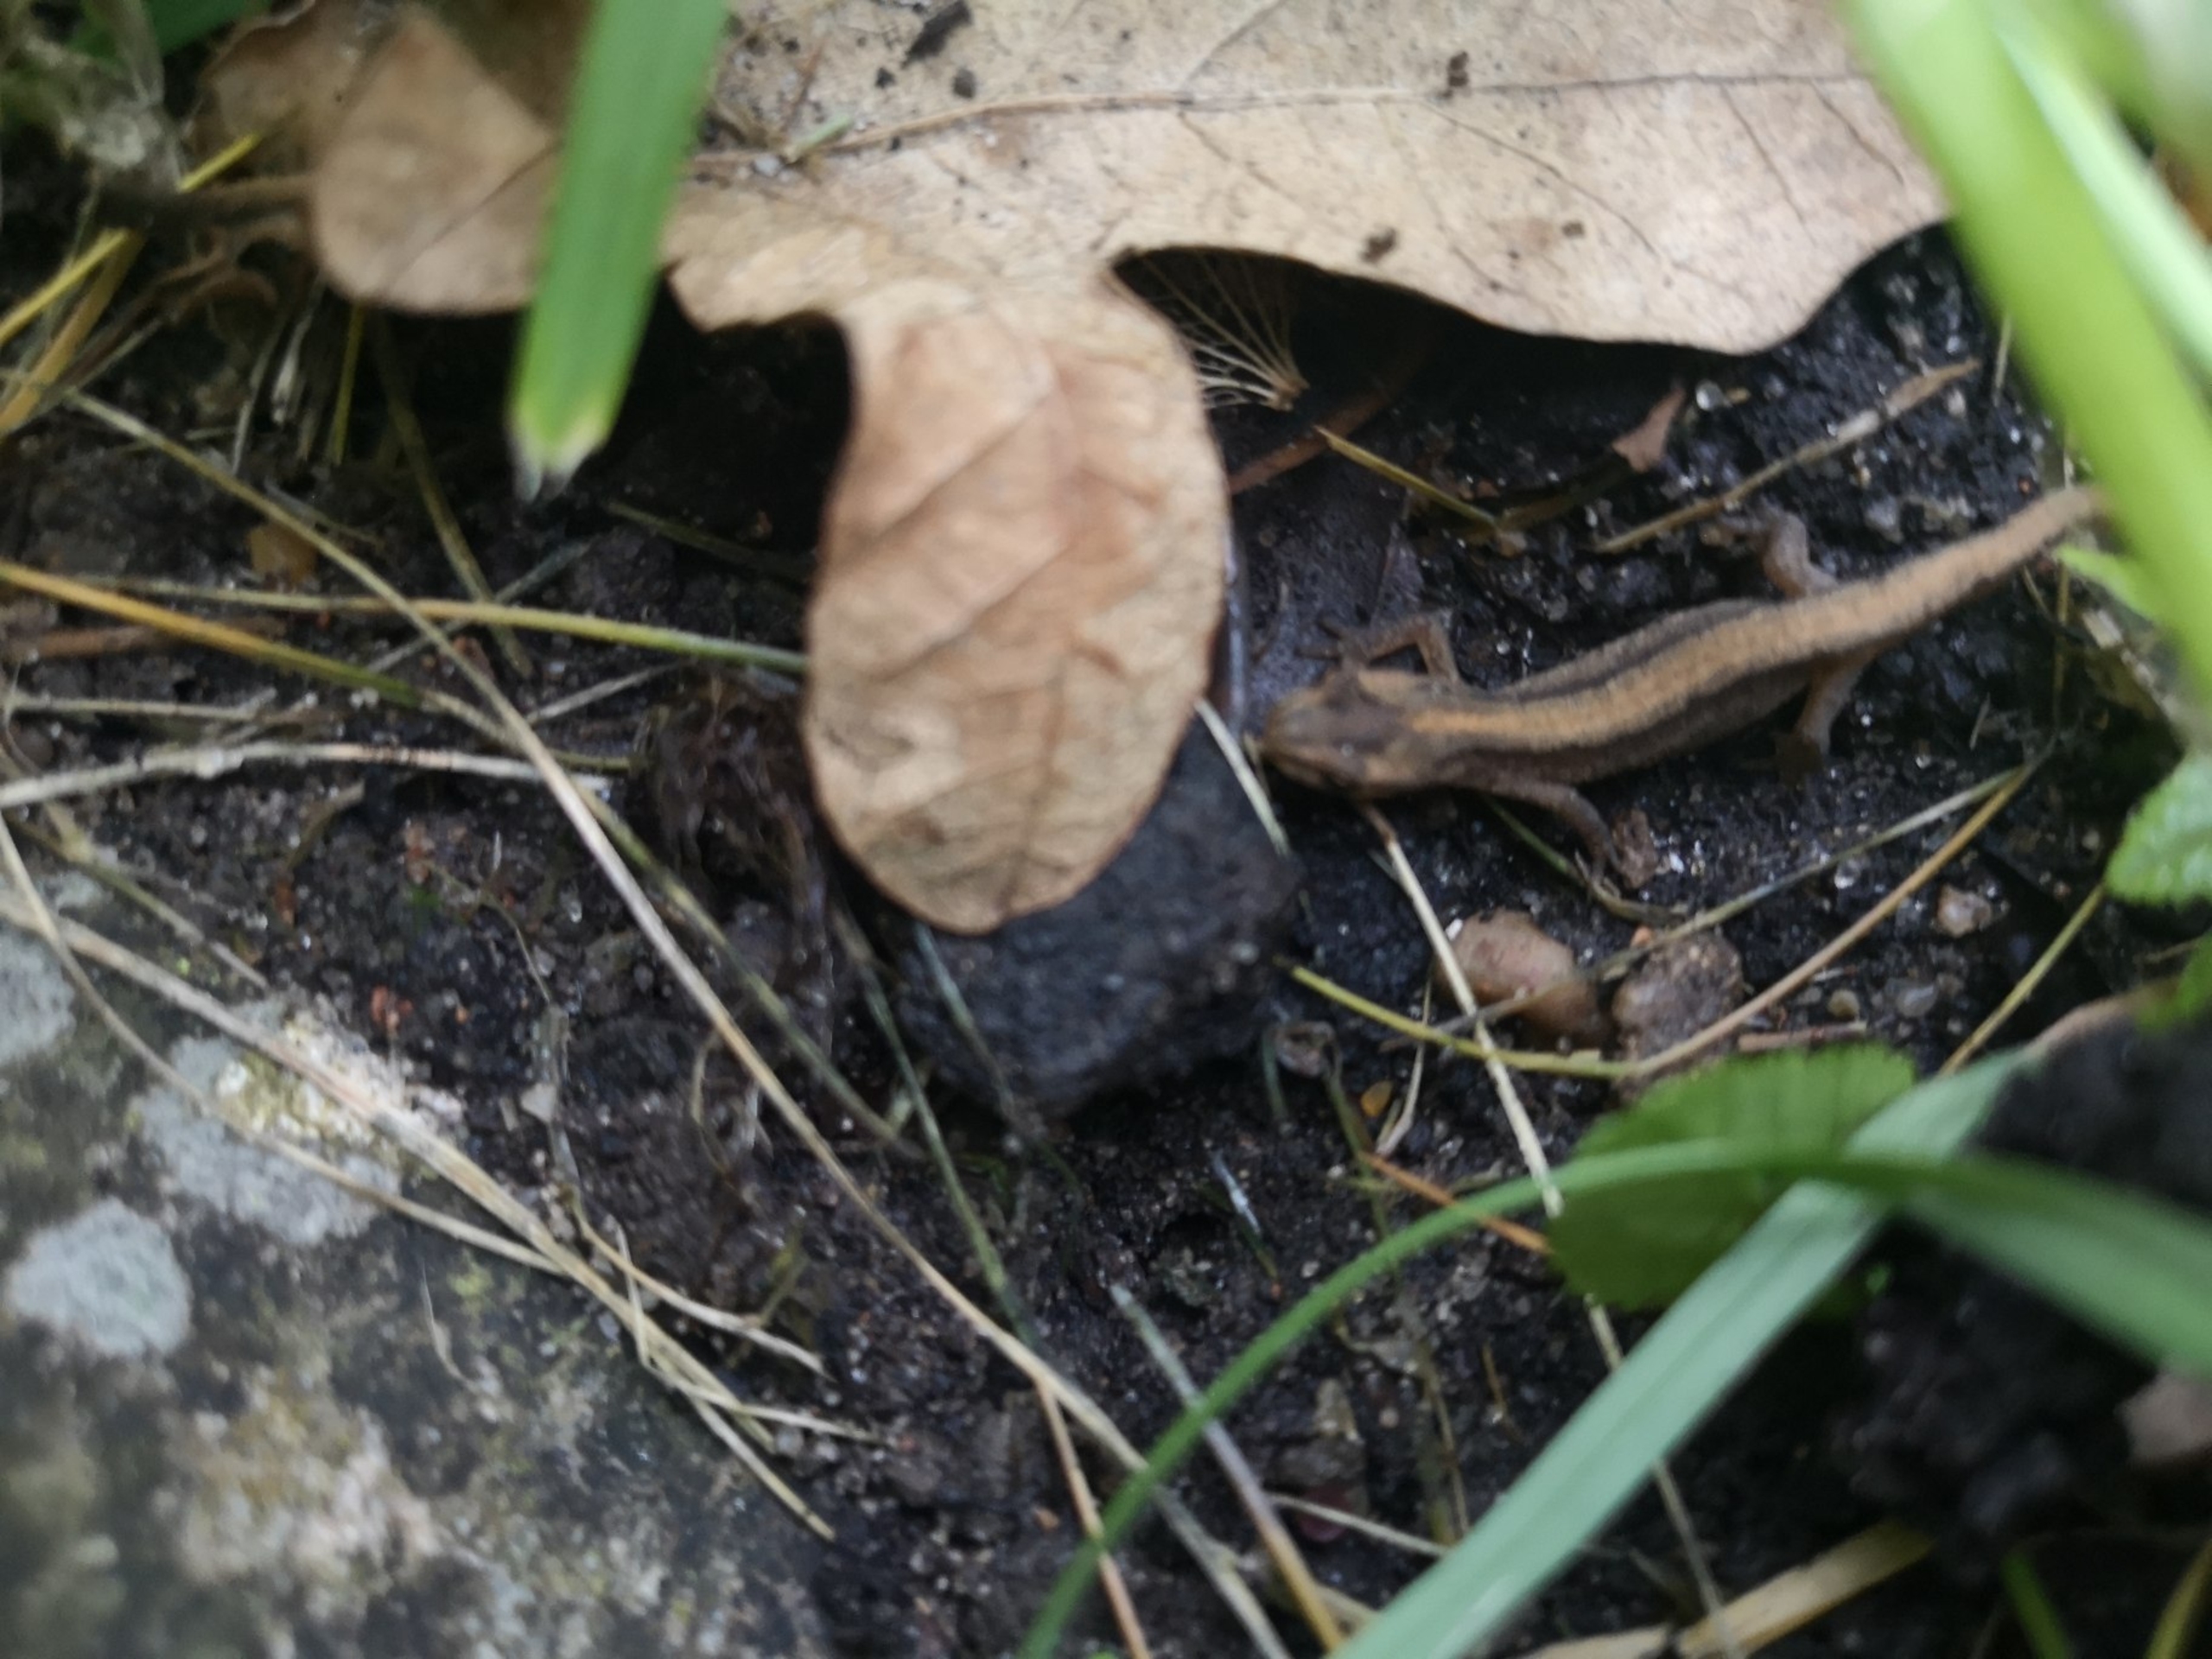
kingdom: Animalia
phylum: Chordata
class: Amphibia
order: Caudata
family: Salamandridae
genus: Lissotriton
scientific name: Lissotriton vulgaris
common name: Lille vandsalamander
